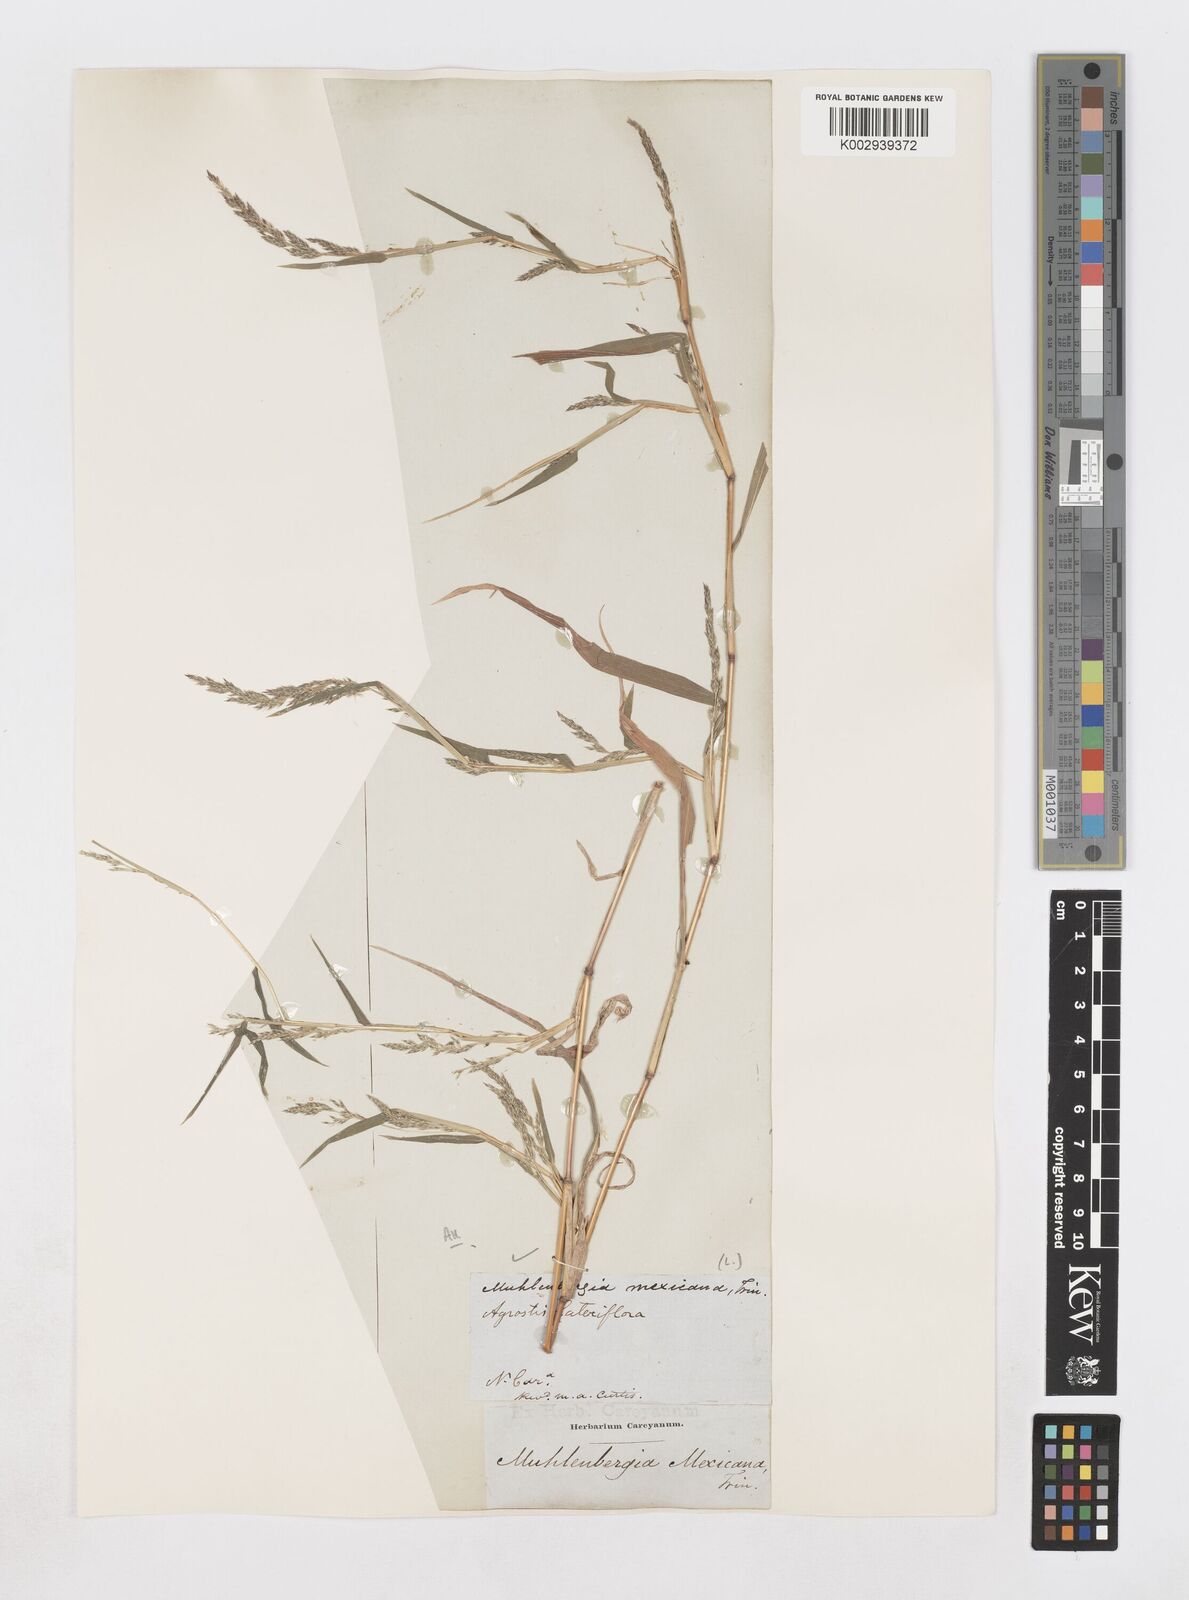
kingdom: Plantae
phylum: Tracheophyta
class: Liliopsida
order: Poales
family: Poaceae
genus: Muhlenbergia
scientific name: Muhlenbergia mexicana
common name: Mexican muhly
